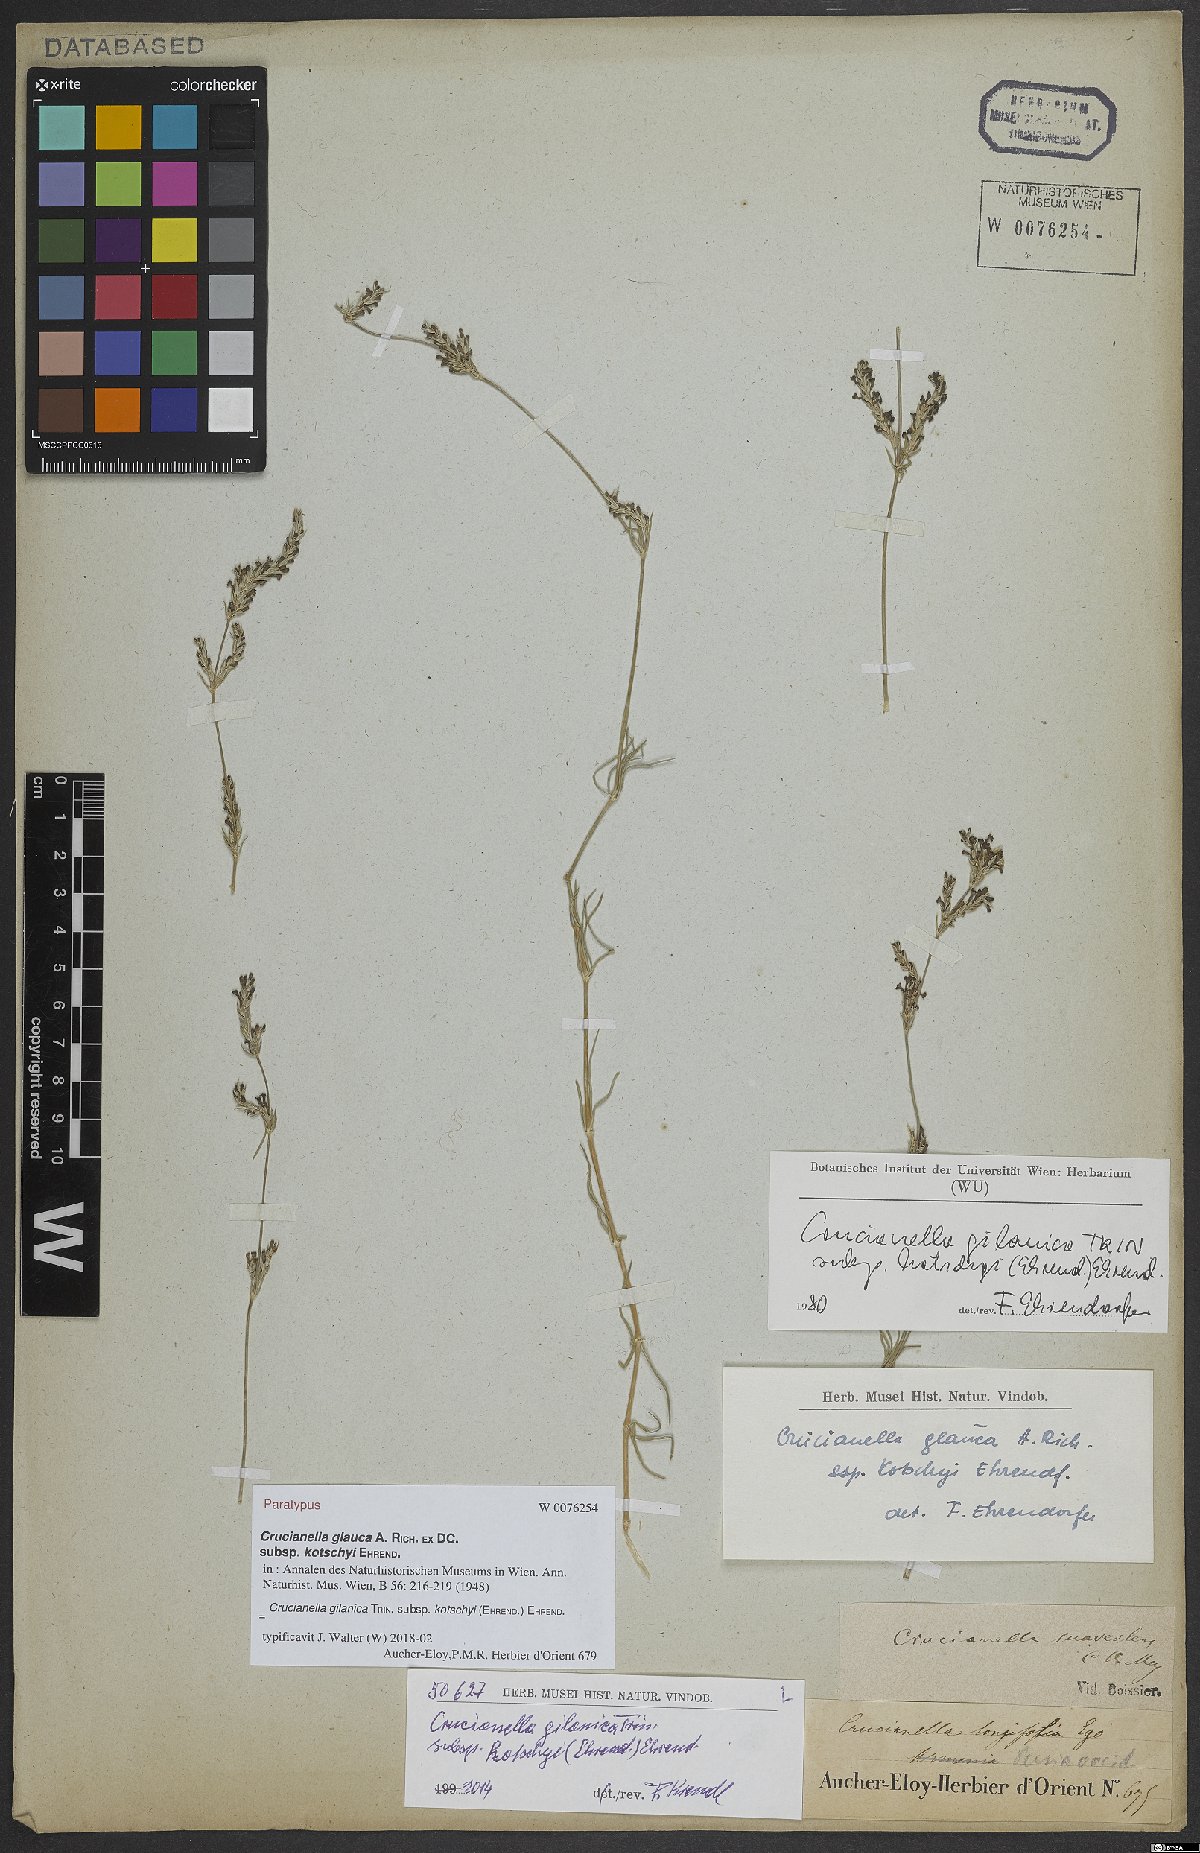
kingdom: Plantae
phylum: Tracheophyta
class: Magnoliopsida
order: Gentianales
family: Rubiaceae
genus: Crucianella
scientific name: Crucianella gilanica
